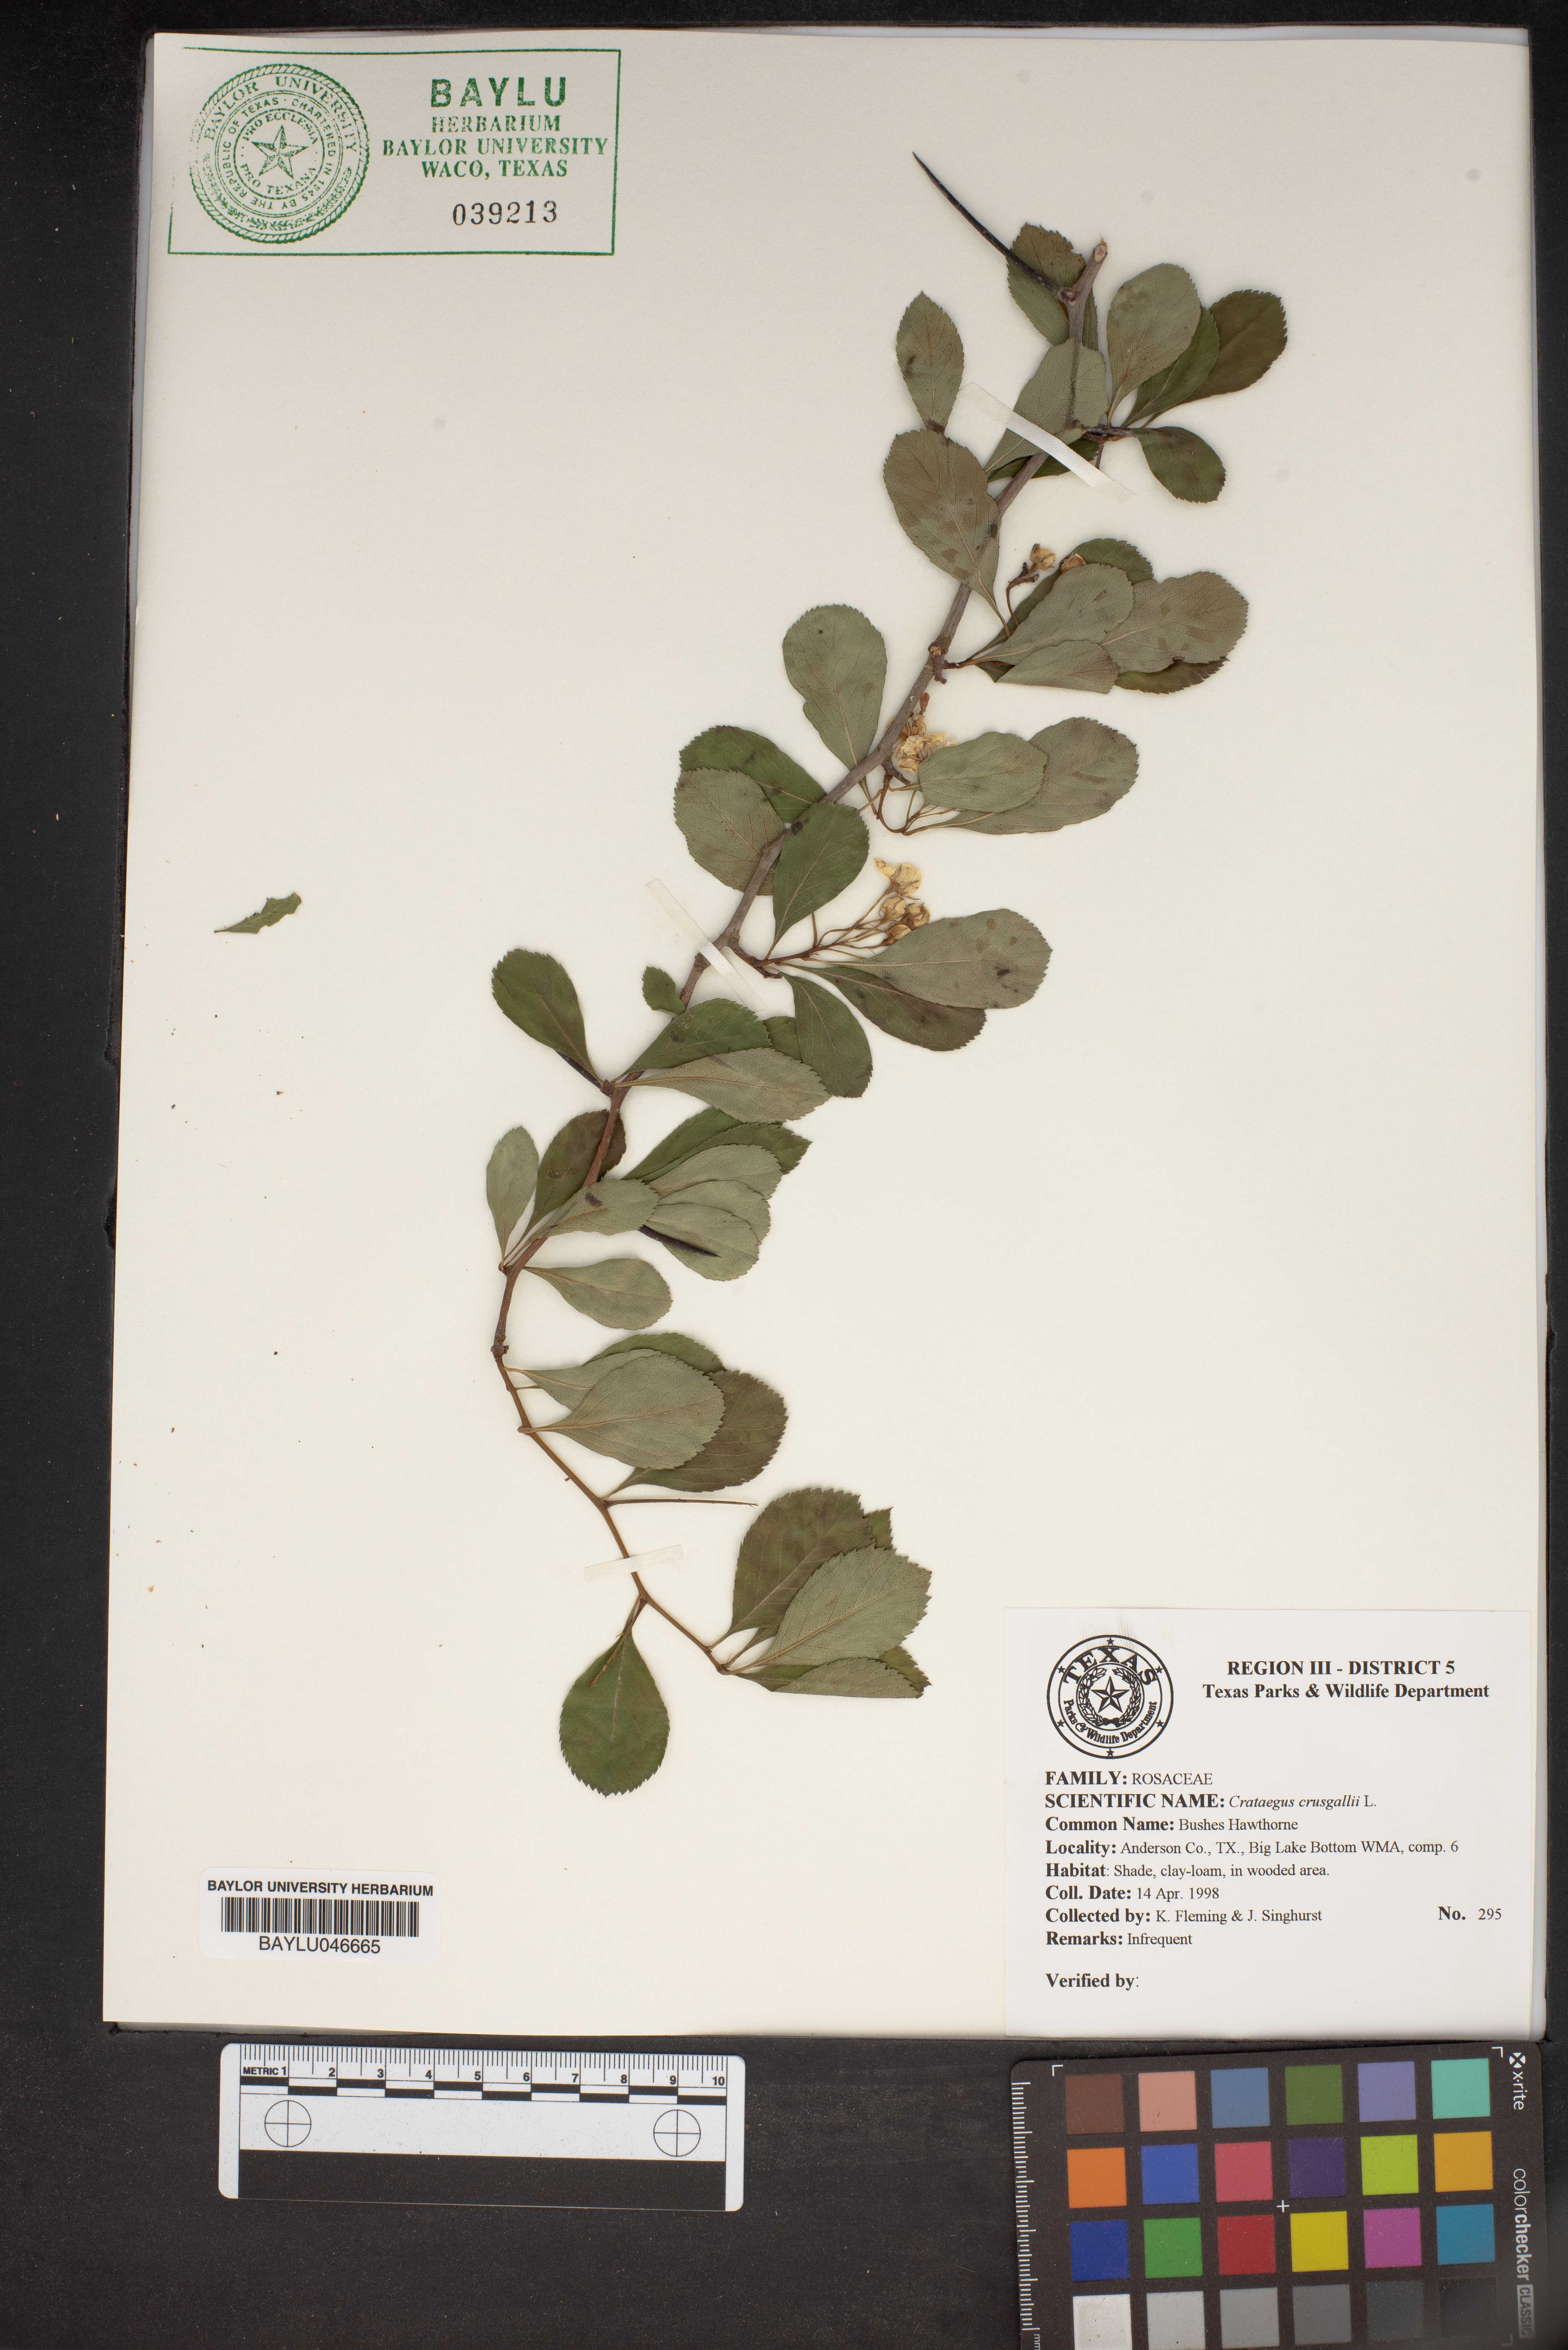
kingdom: Plantae
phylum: Tracheophyta
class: Magnoliopsida
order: Rosales
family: Rosaceae
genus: Crataegus
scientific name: Crataegus crus-galli
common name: Cockspurthorn
